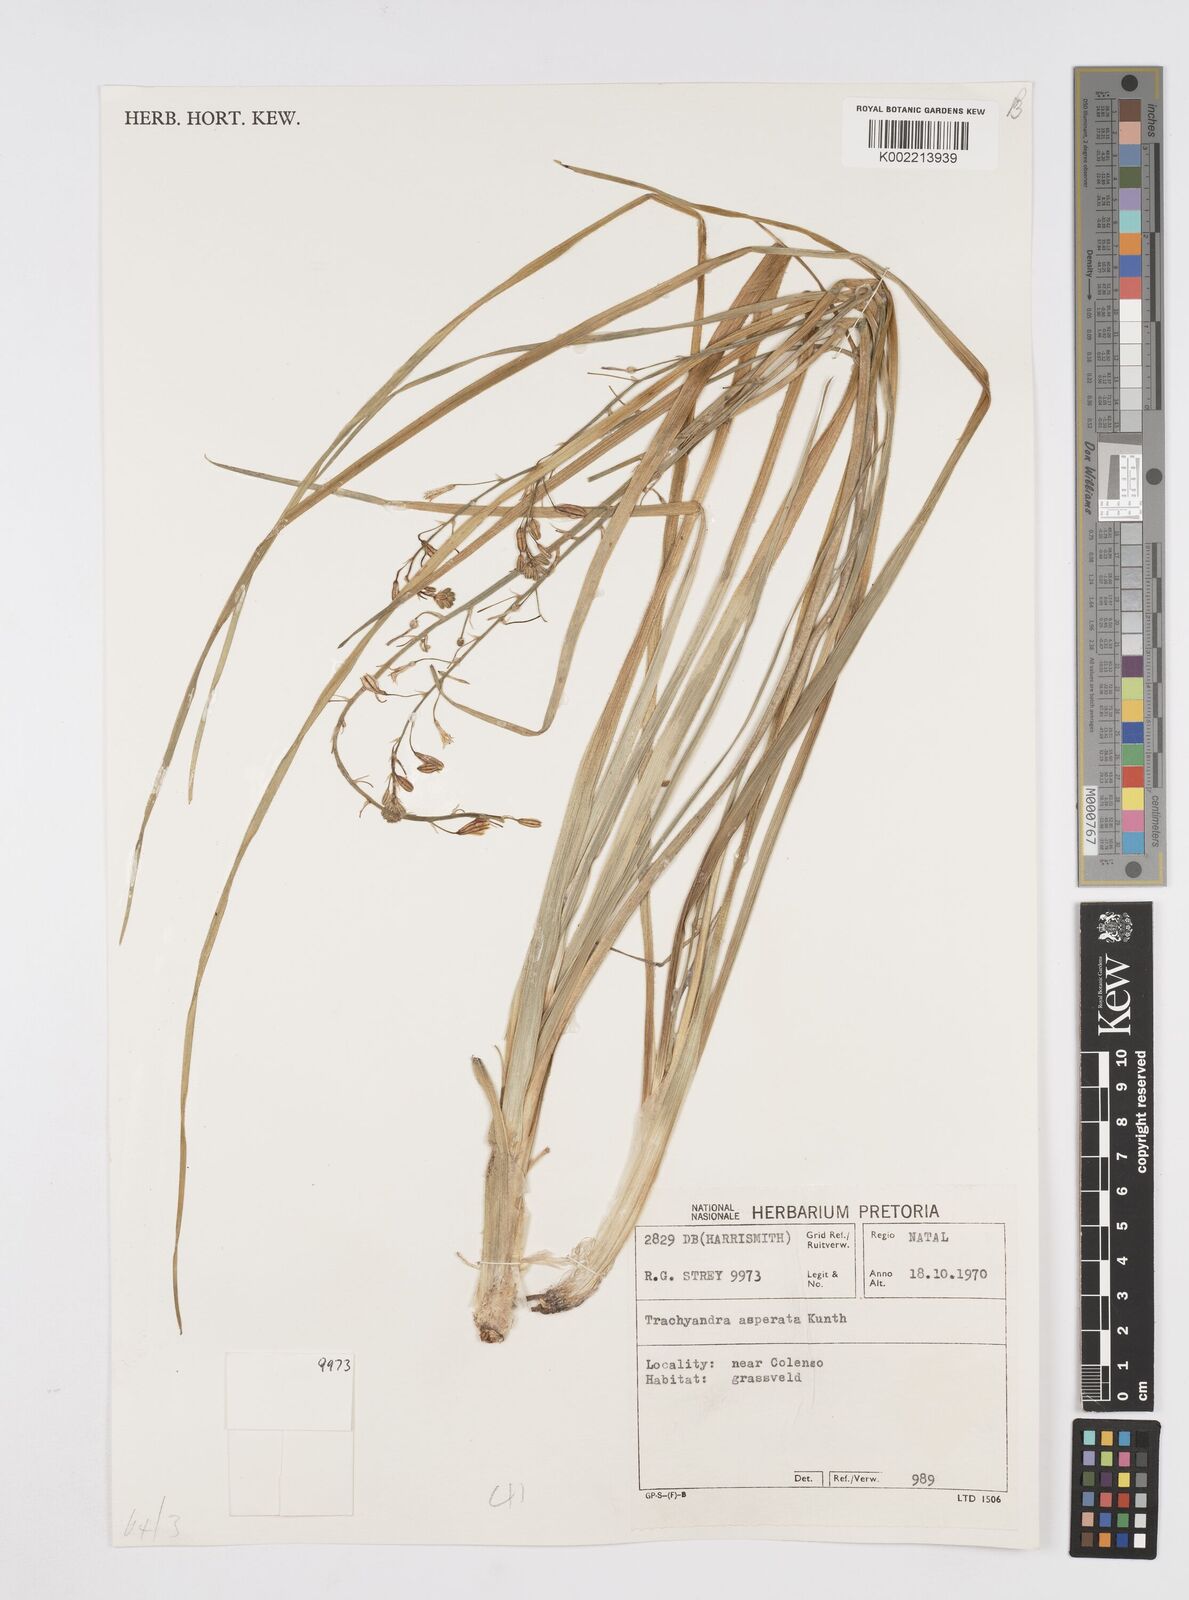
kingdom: Plantae
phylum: Tracheophyta
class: Liliopsida
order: Asparagales
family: Asphodelaceae
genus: Trachyandra
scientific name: Trachyandra asperata
